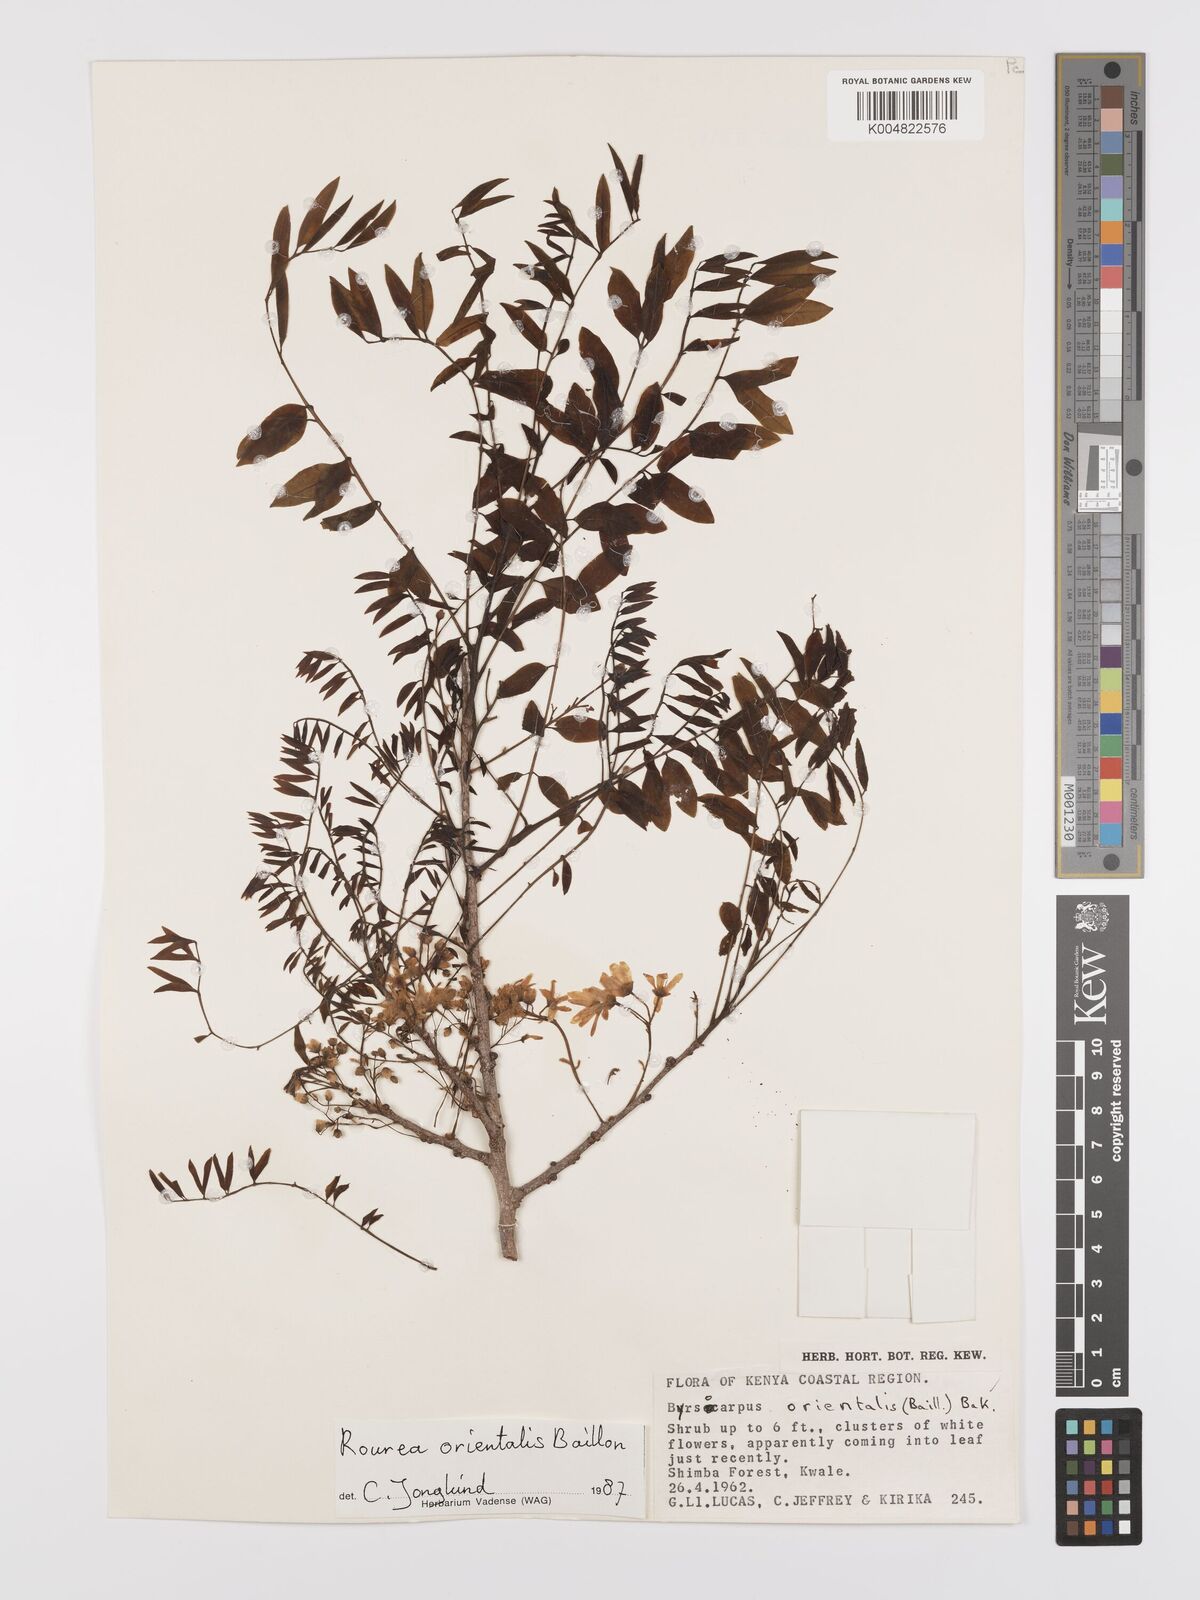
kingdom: Plantae
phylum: Tracheophyta
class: Magnoliopsida
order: Oxalidales
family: Connaraceae
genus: Rourea
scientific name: Rourea orientalis
